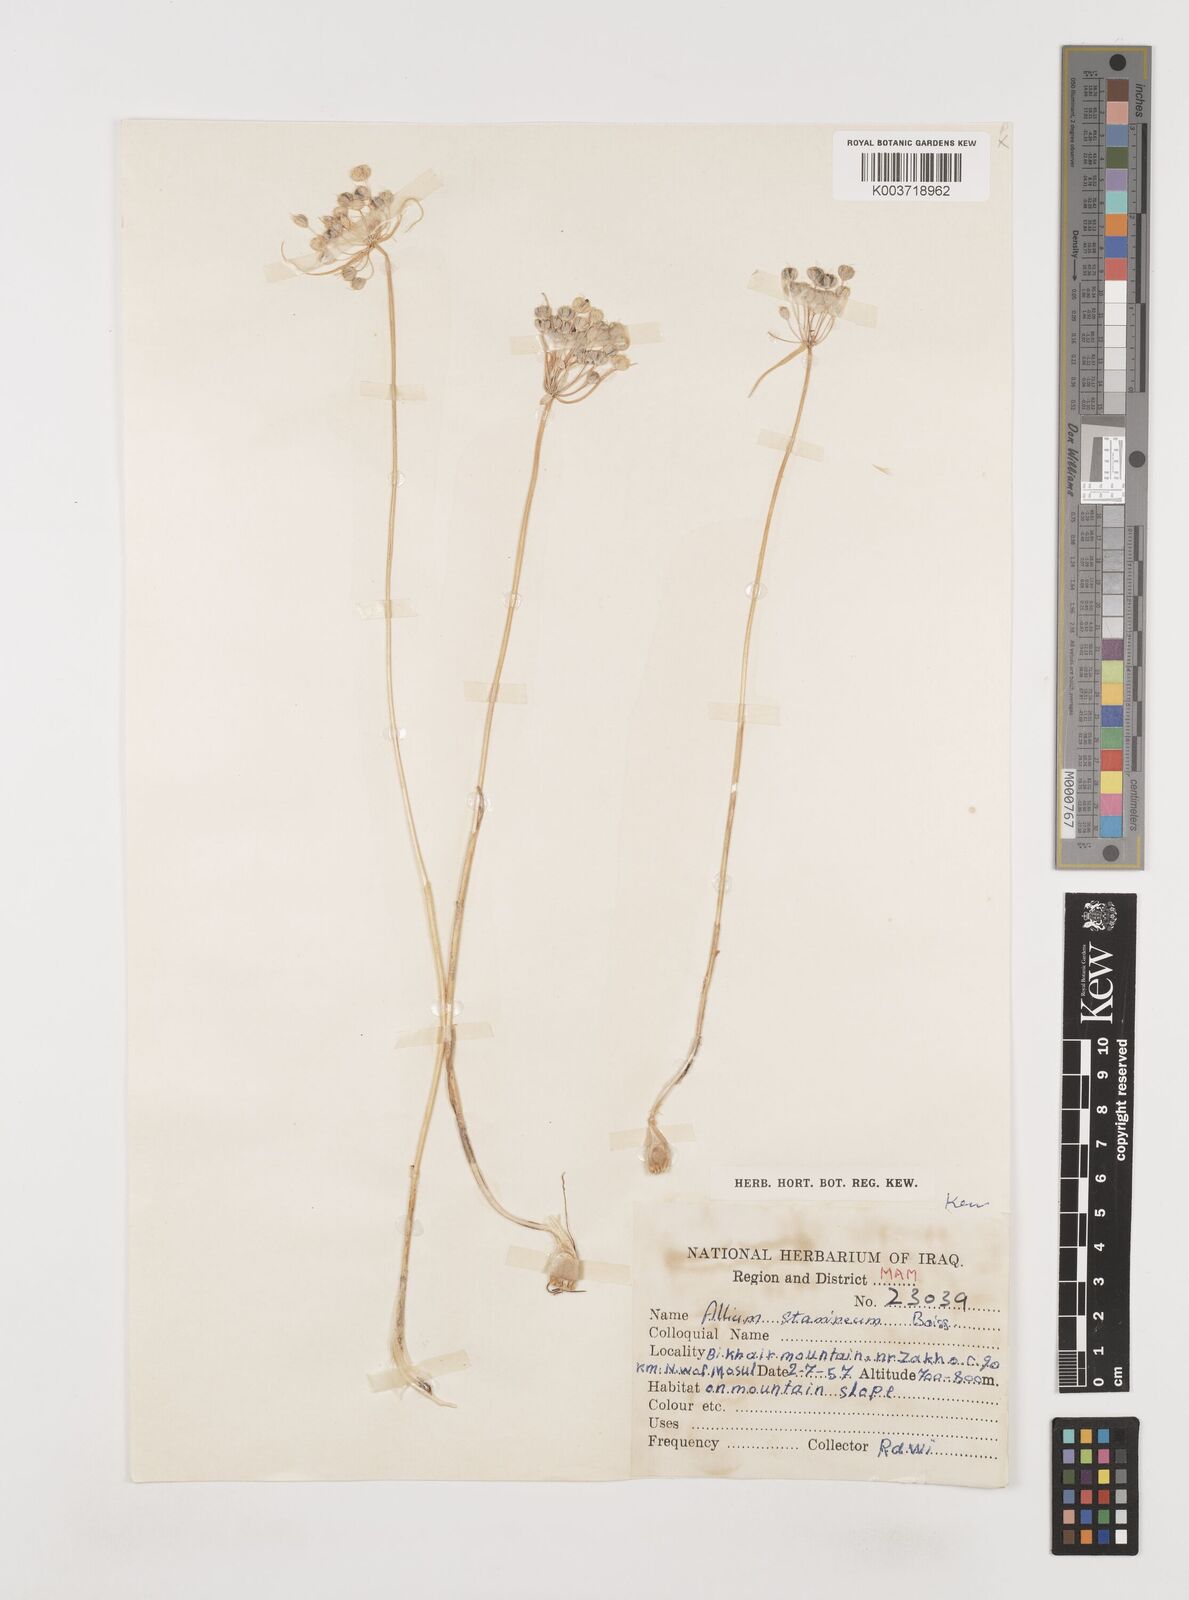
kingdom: Plantae
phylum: Tracheophyta
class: Liliopsida
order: Asparagales
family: Amaryllidaceae
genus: Allium
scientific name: Allium stamineum
